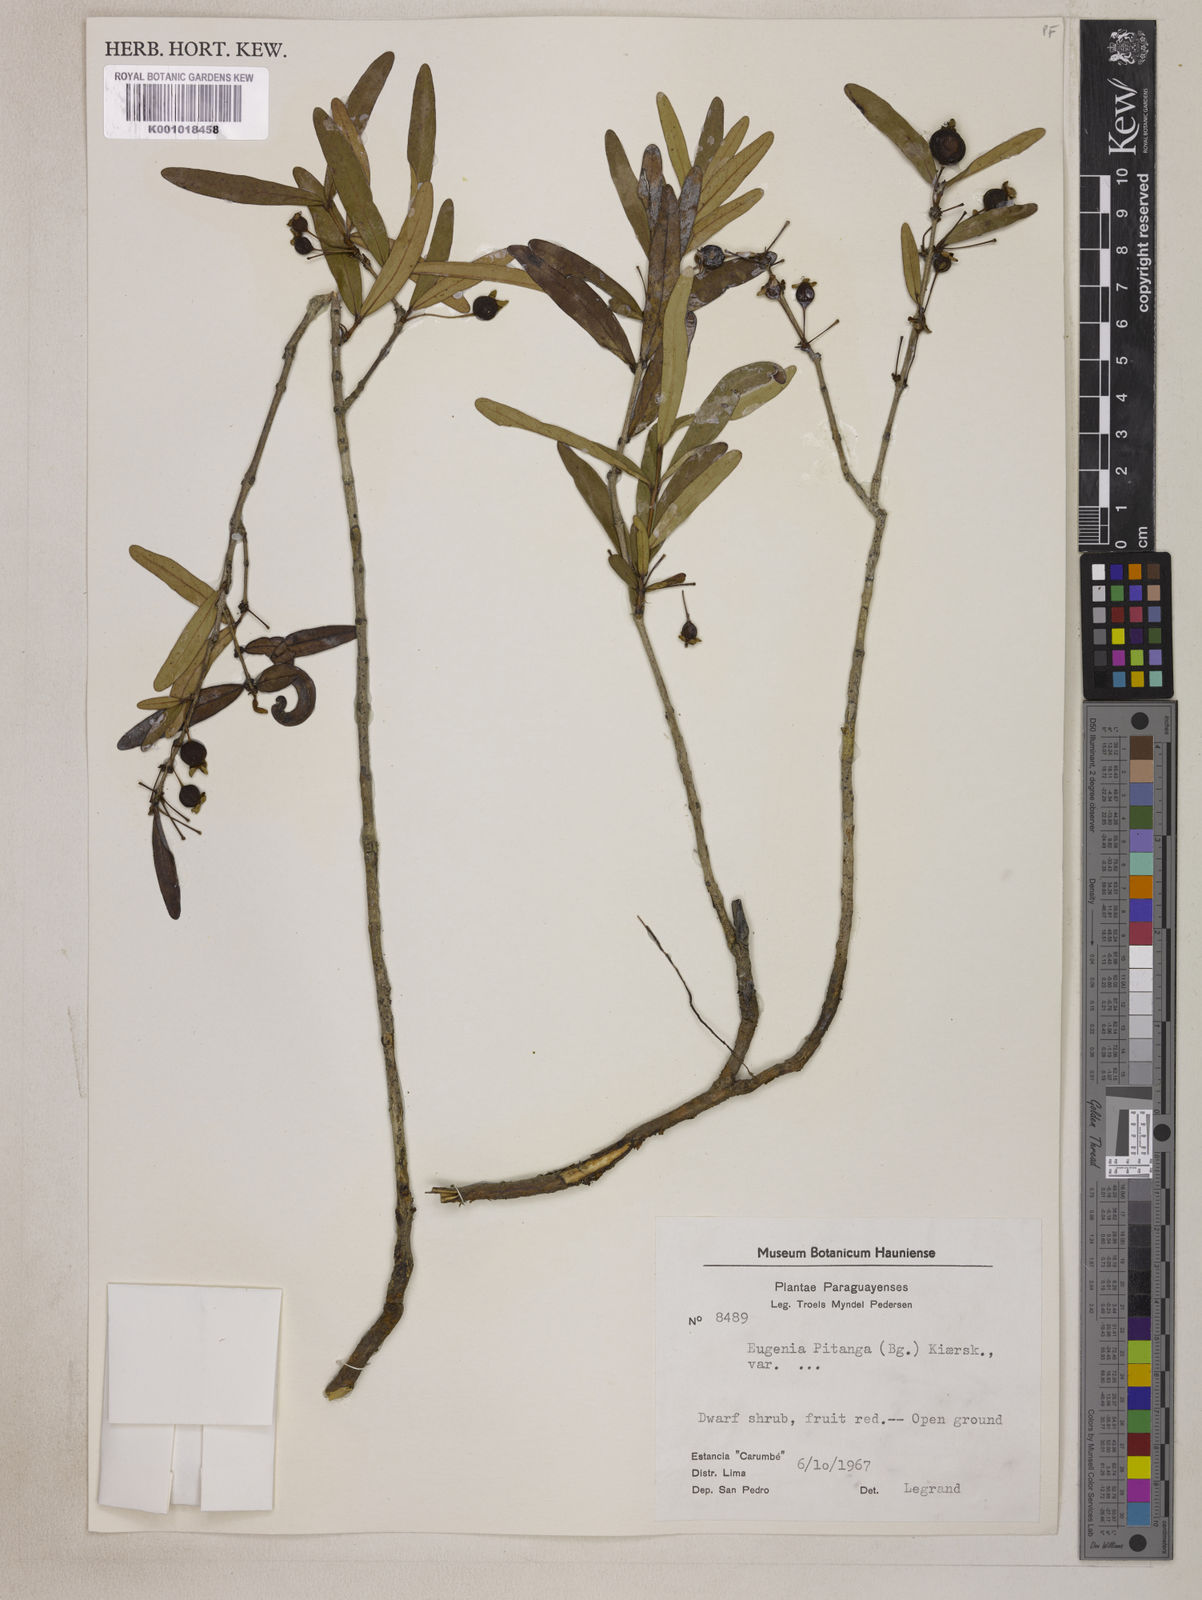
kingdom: Plantae
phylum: Tracheophyta
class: Magnoliopsida
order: Myrtales
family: Myrtaceae
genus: Eugenia
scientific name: Eugenia
